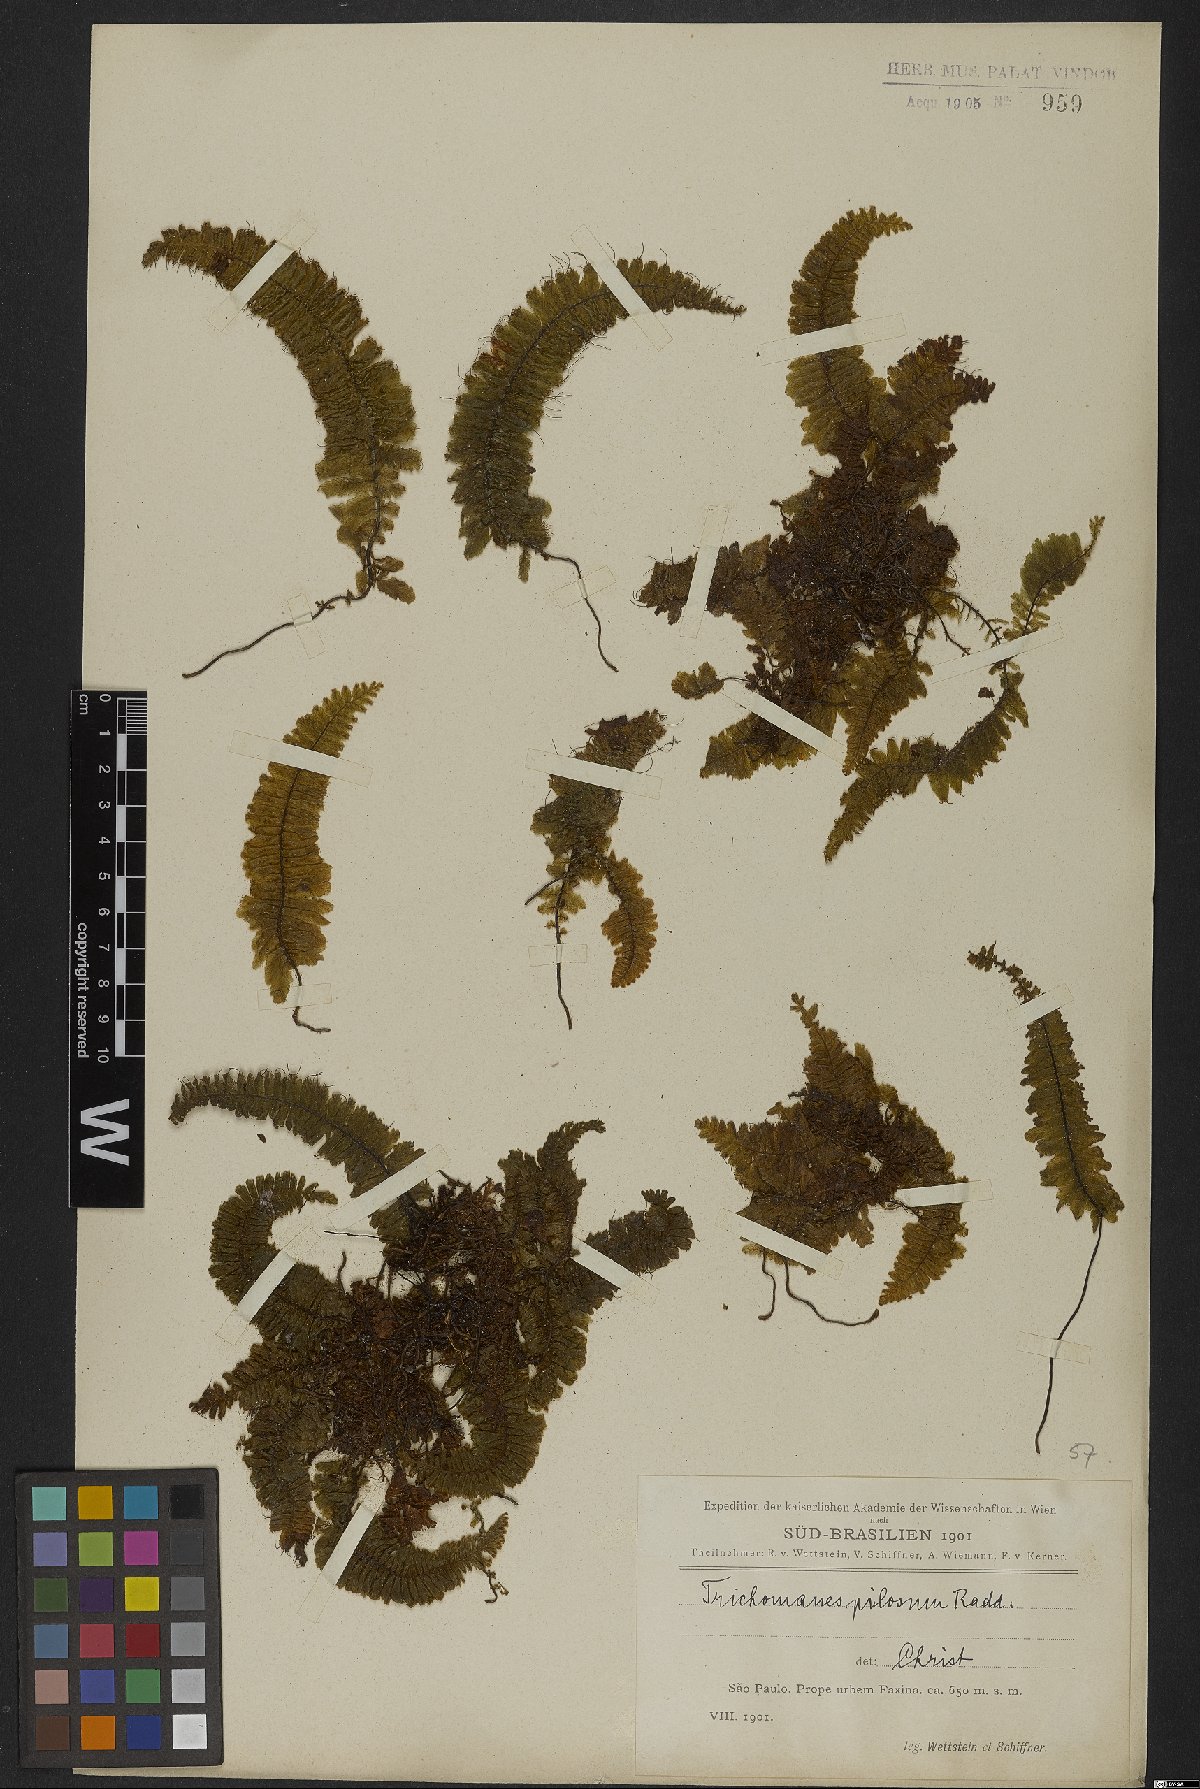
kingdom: Plantae
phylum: Tracheophyta
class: Polypodiopsida
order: Hymenophyllales
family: Hymenophyllaceae
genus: Trichomanes
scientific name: Trichomanes pilosum
